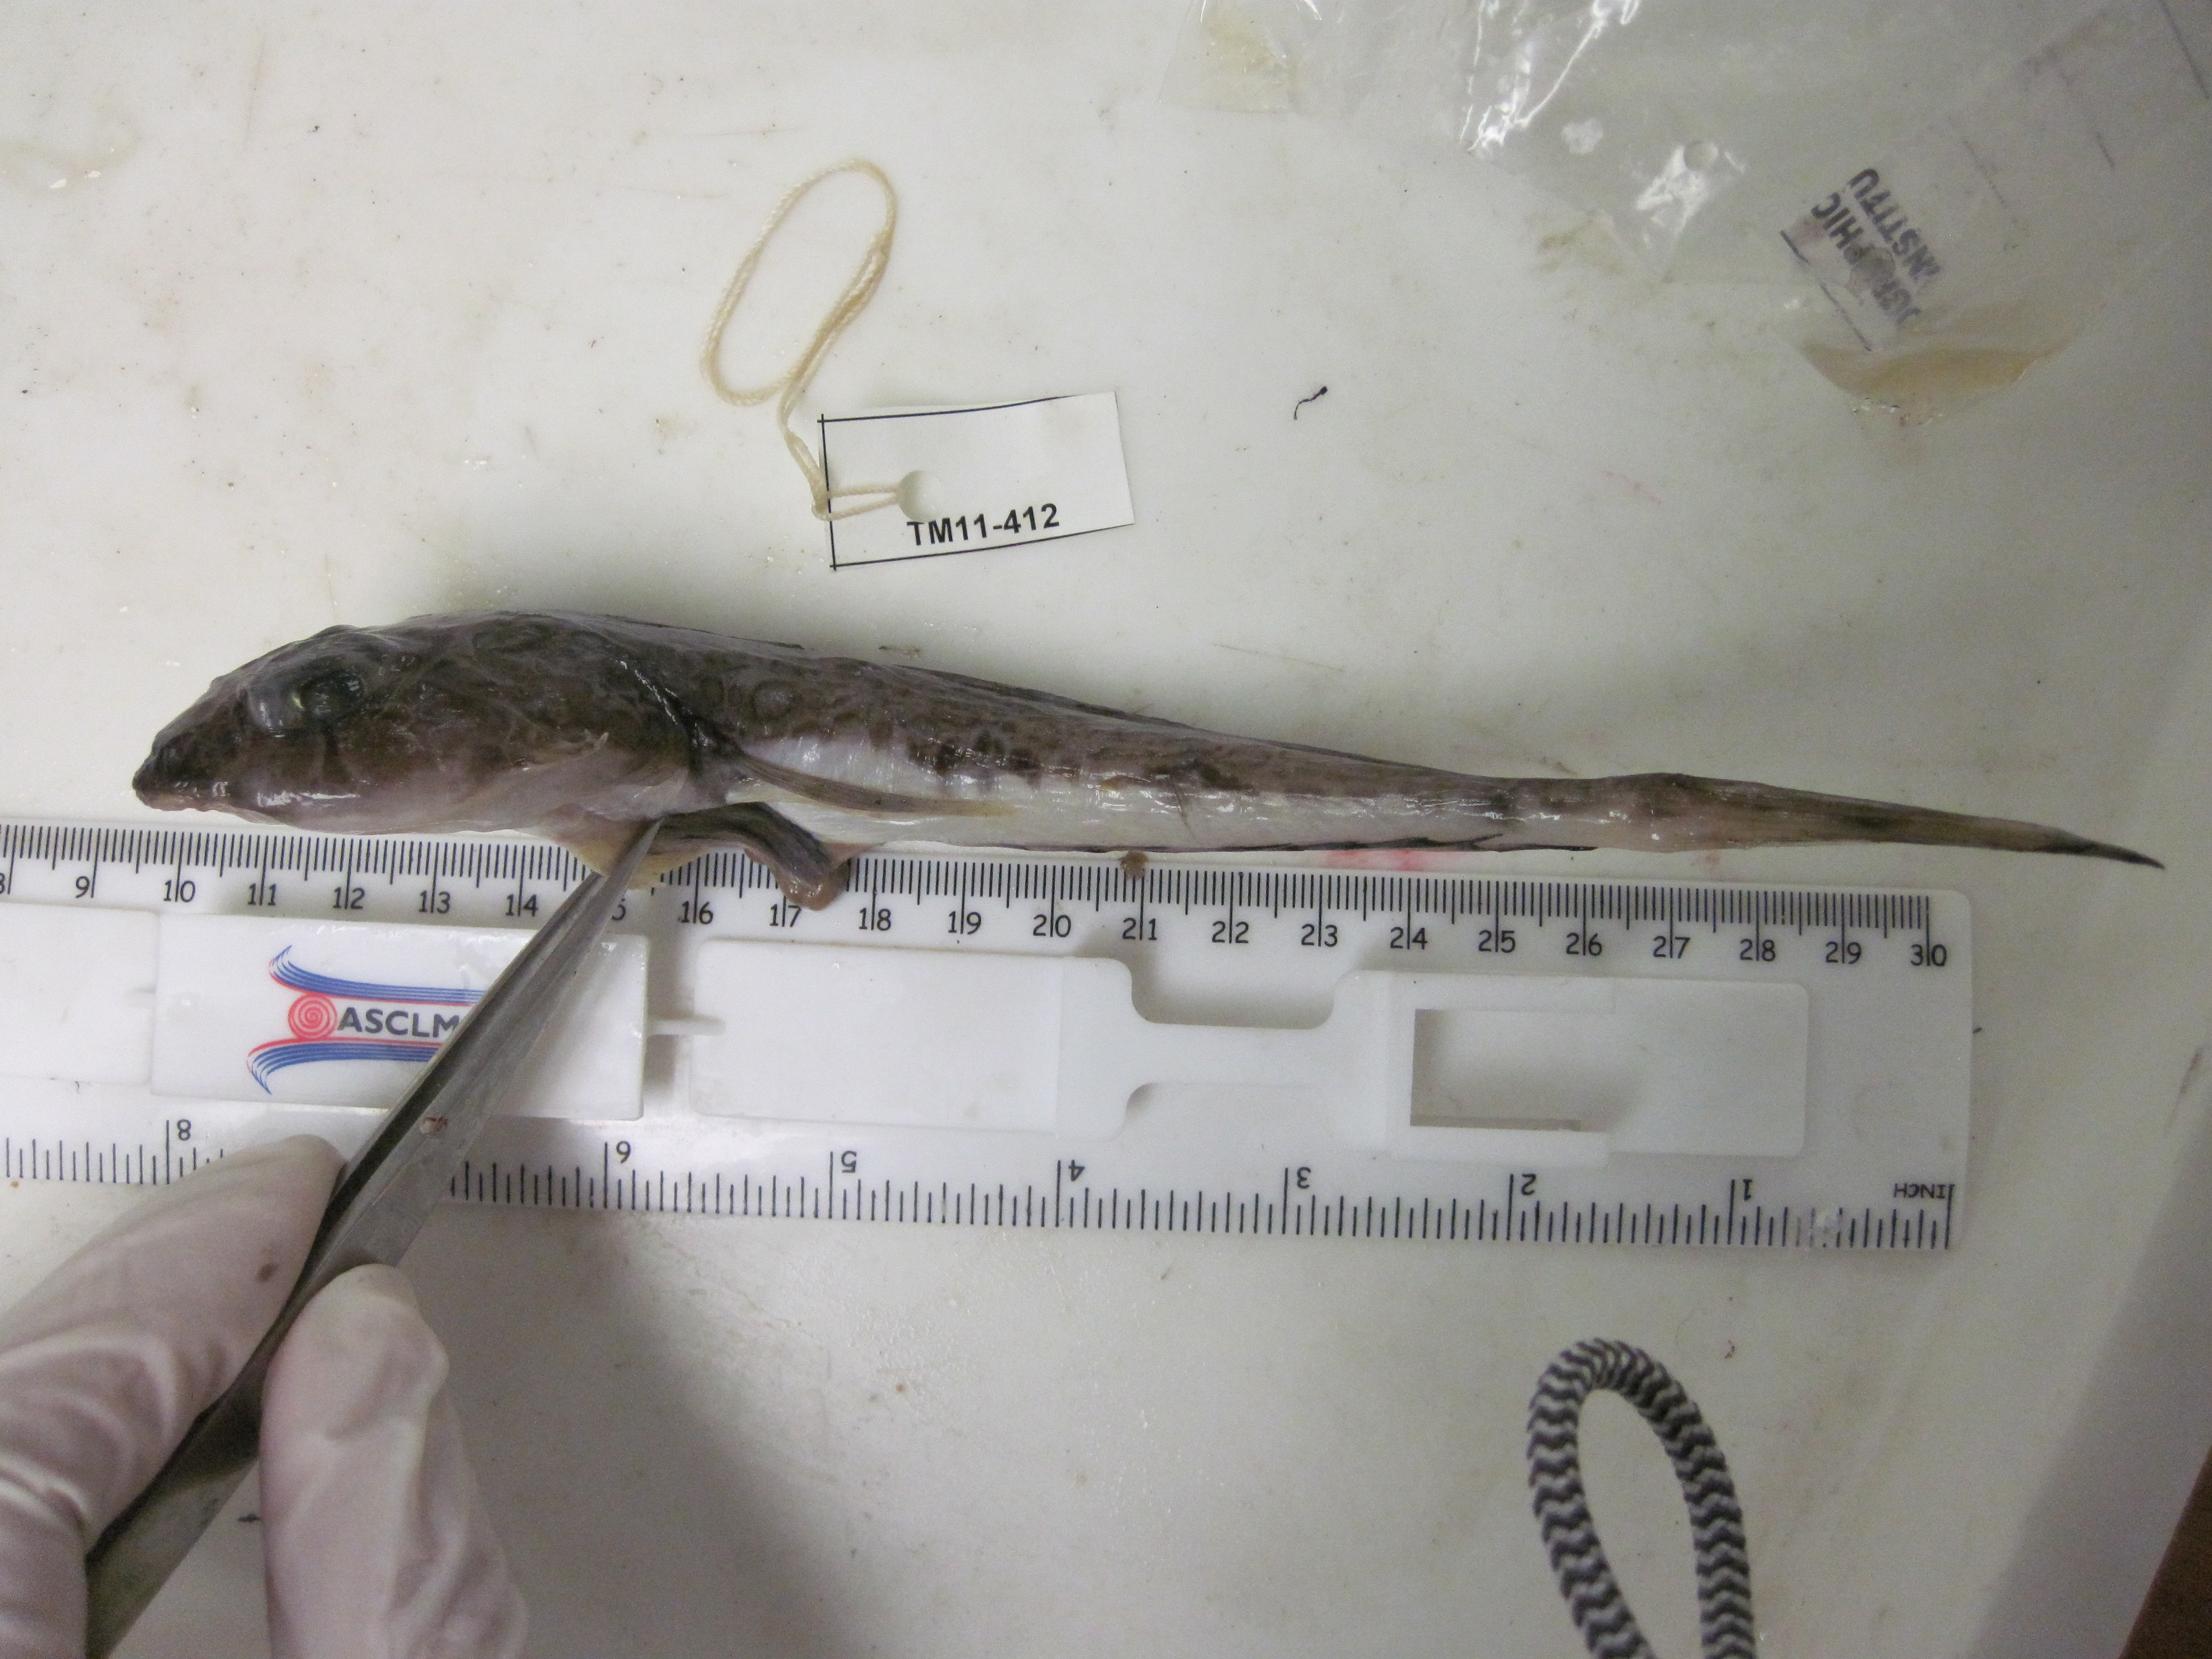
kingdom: Animalia
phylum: Chordata
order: Perciformes
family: Callionymidae
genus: Callionymus
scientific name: Callionymus regani
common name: Regan’s deepwater dragonet
